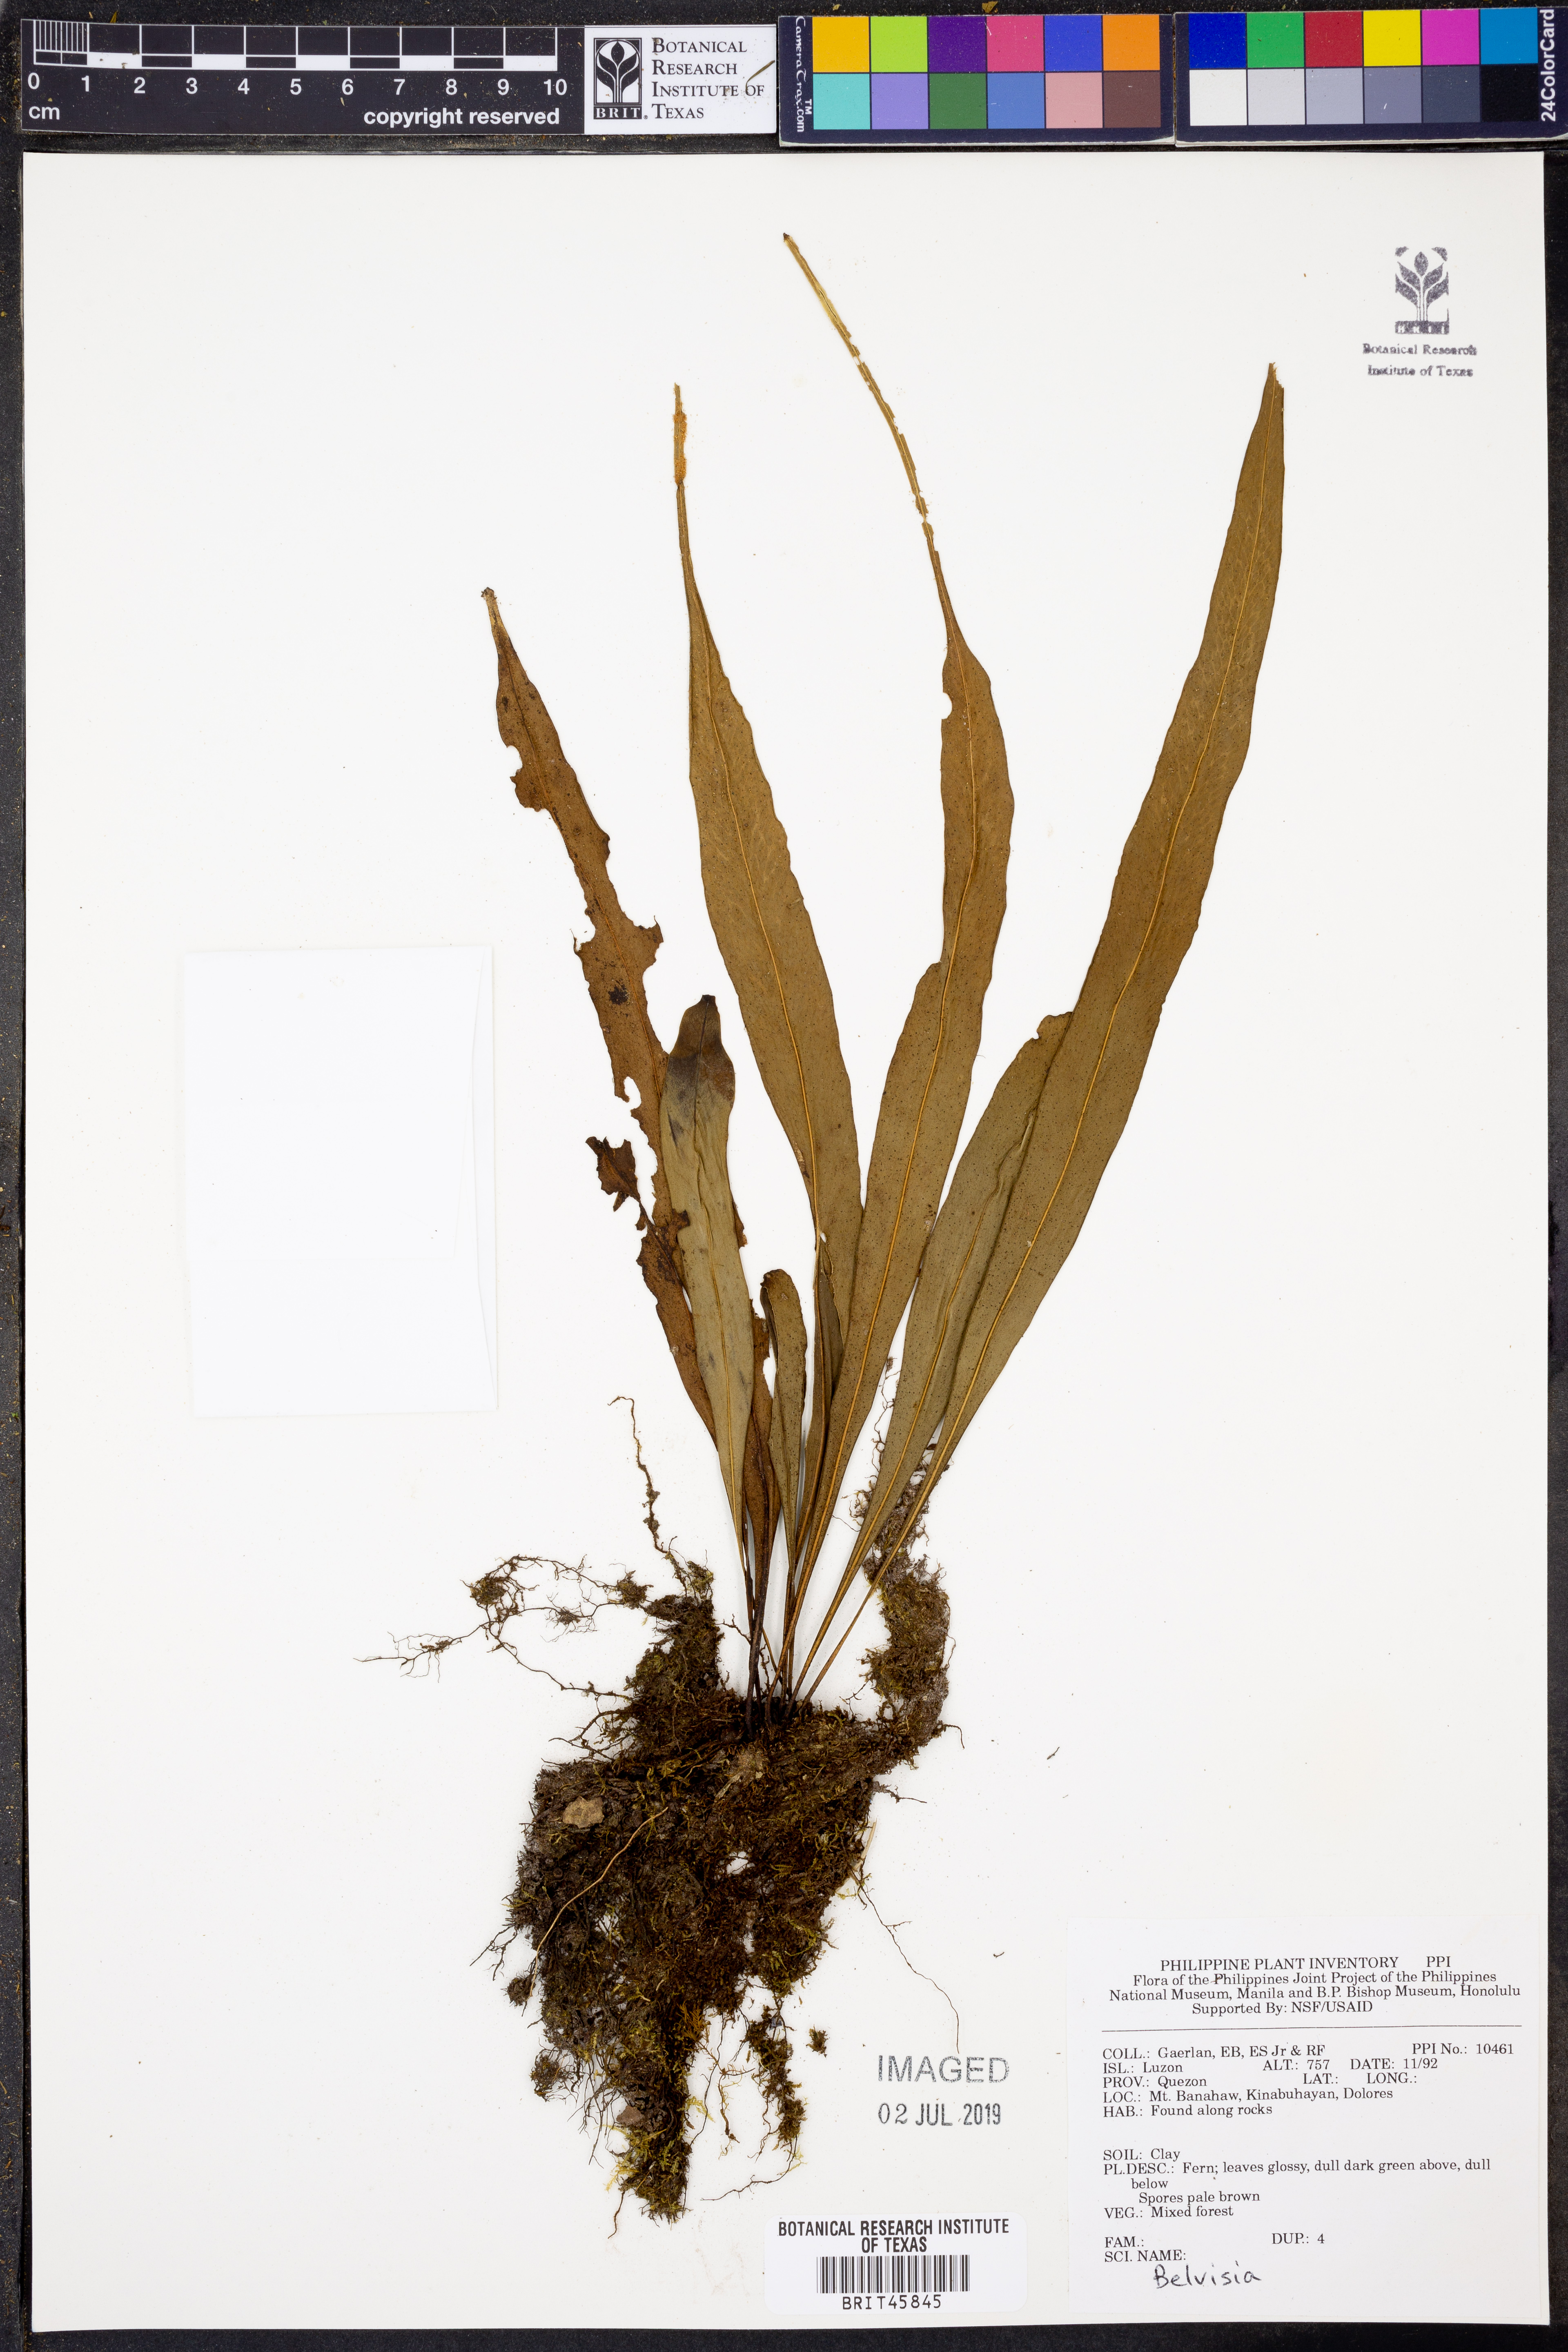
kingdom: Plantae
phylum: Tracheophyta
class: Polypodiopsida
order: Polypodiales
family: Polypodiaceae
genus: Lepisorus
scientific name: Lepisorus
